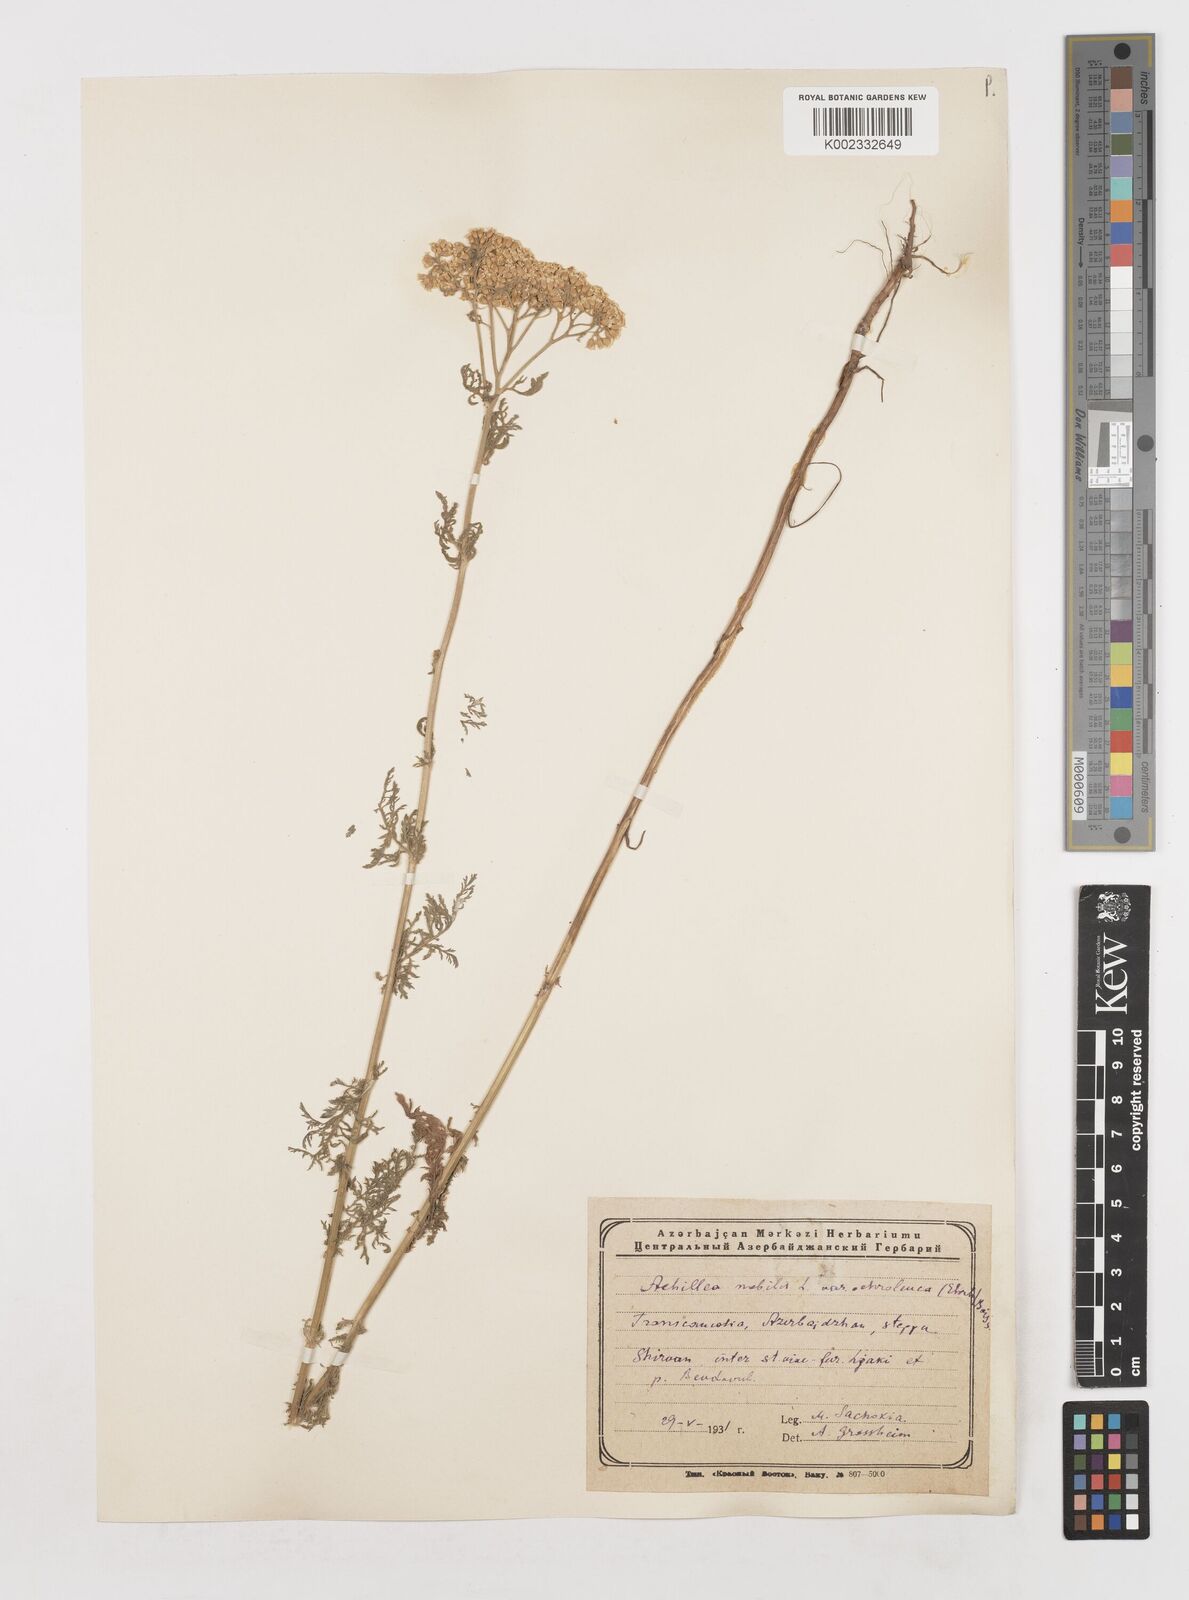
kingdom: Plantae
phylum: Tracheophyta
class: Magnoliopsida
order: Asterales
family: Asteraceae
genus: Achillea
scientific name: Achillea nobilis
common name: Noble yarrow
